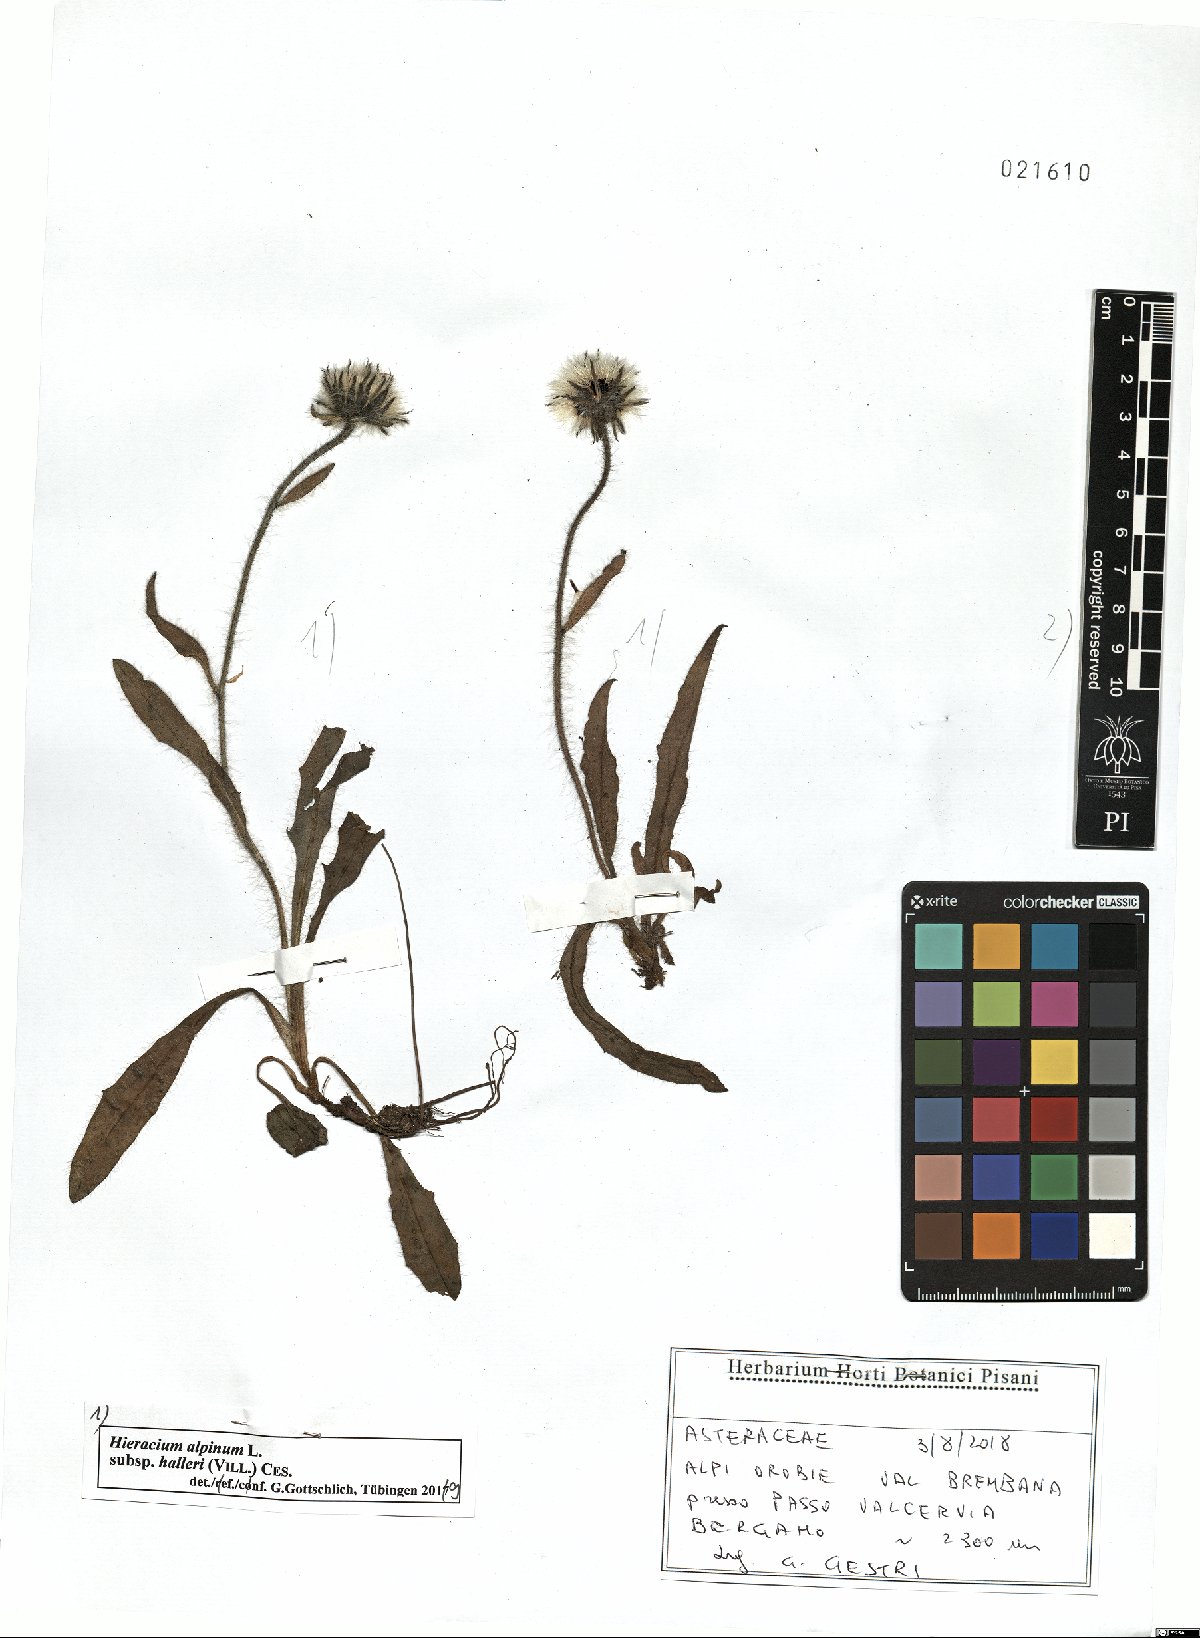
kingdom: Plantae
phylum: Tracheophyta
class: Magnoliopsida
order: Asterales
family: Asteraceae
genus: Hieracium
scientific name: Hieracium alpinum
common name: Alpine hawkweed
